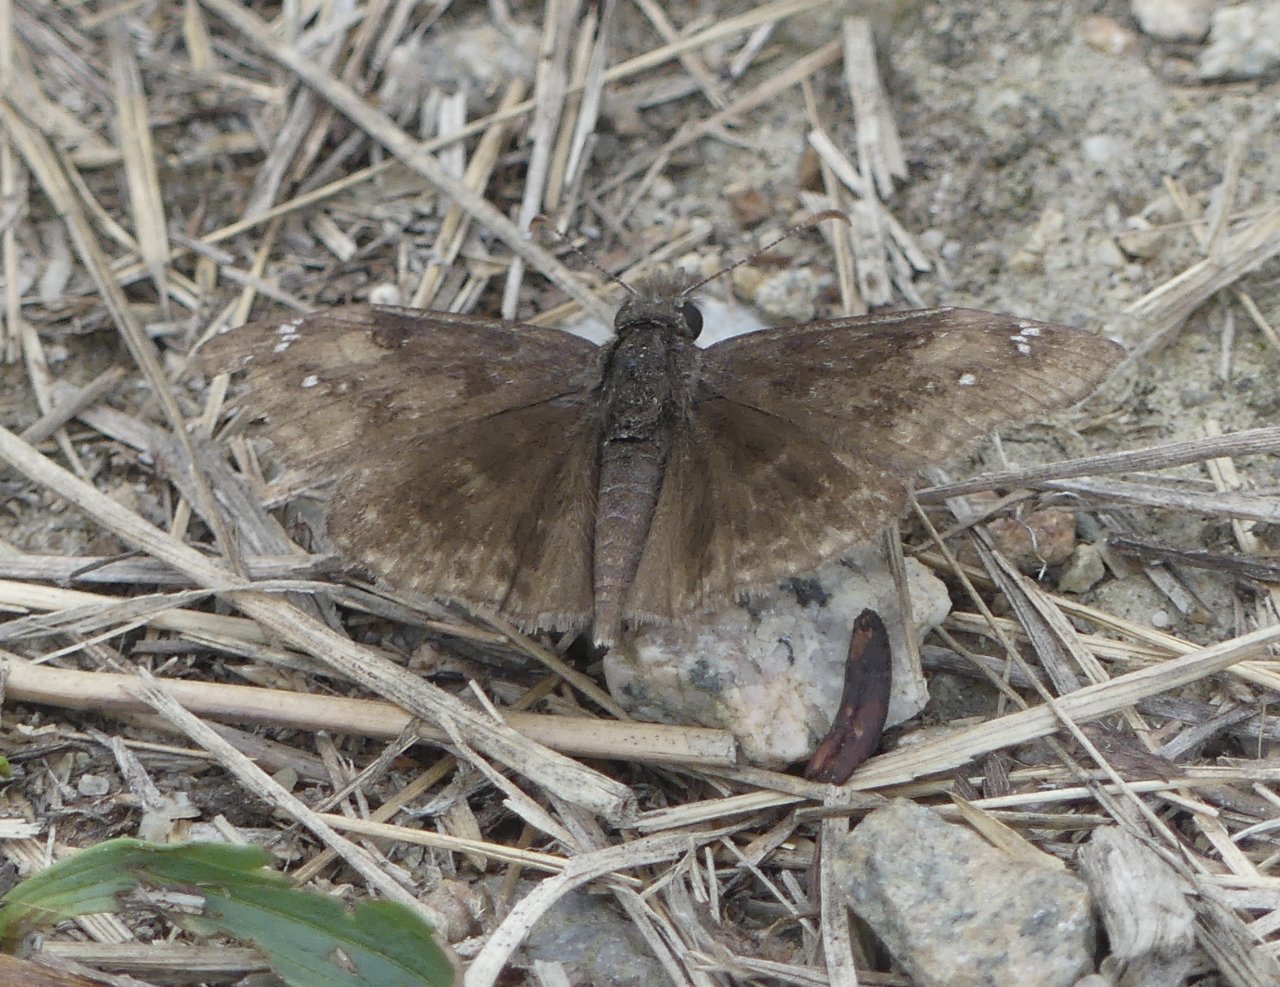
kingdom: Animalia
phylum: Arthropoda
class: Insecta
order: Lepidoptera
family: Hesperiidae
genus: Gesta
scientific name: Gesta
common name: Wild Indigo Duskywing
